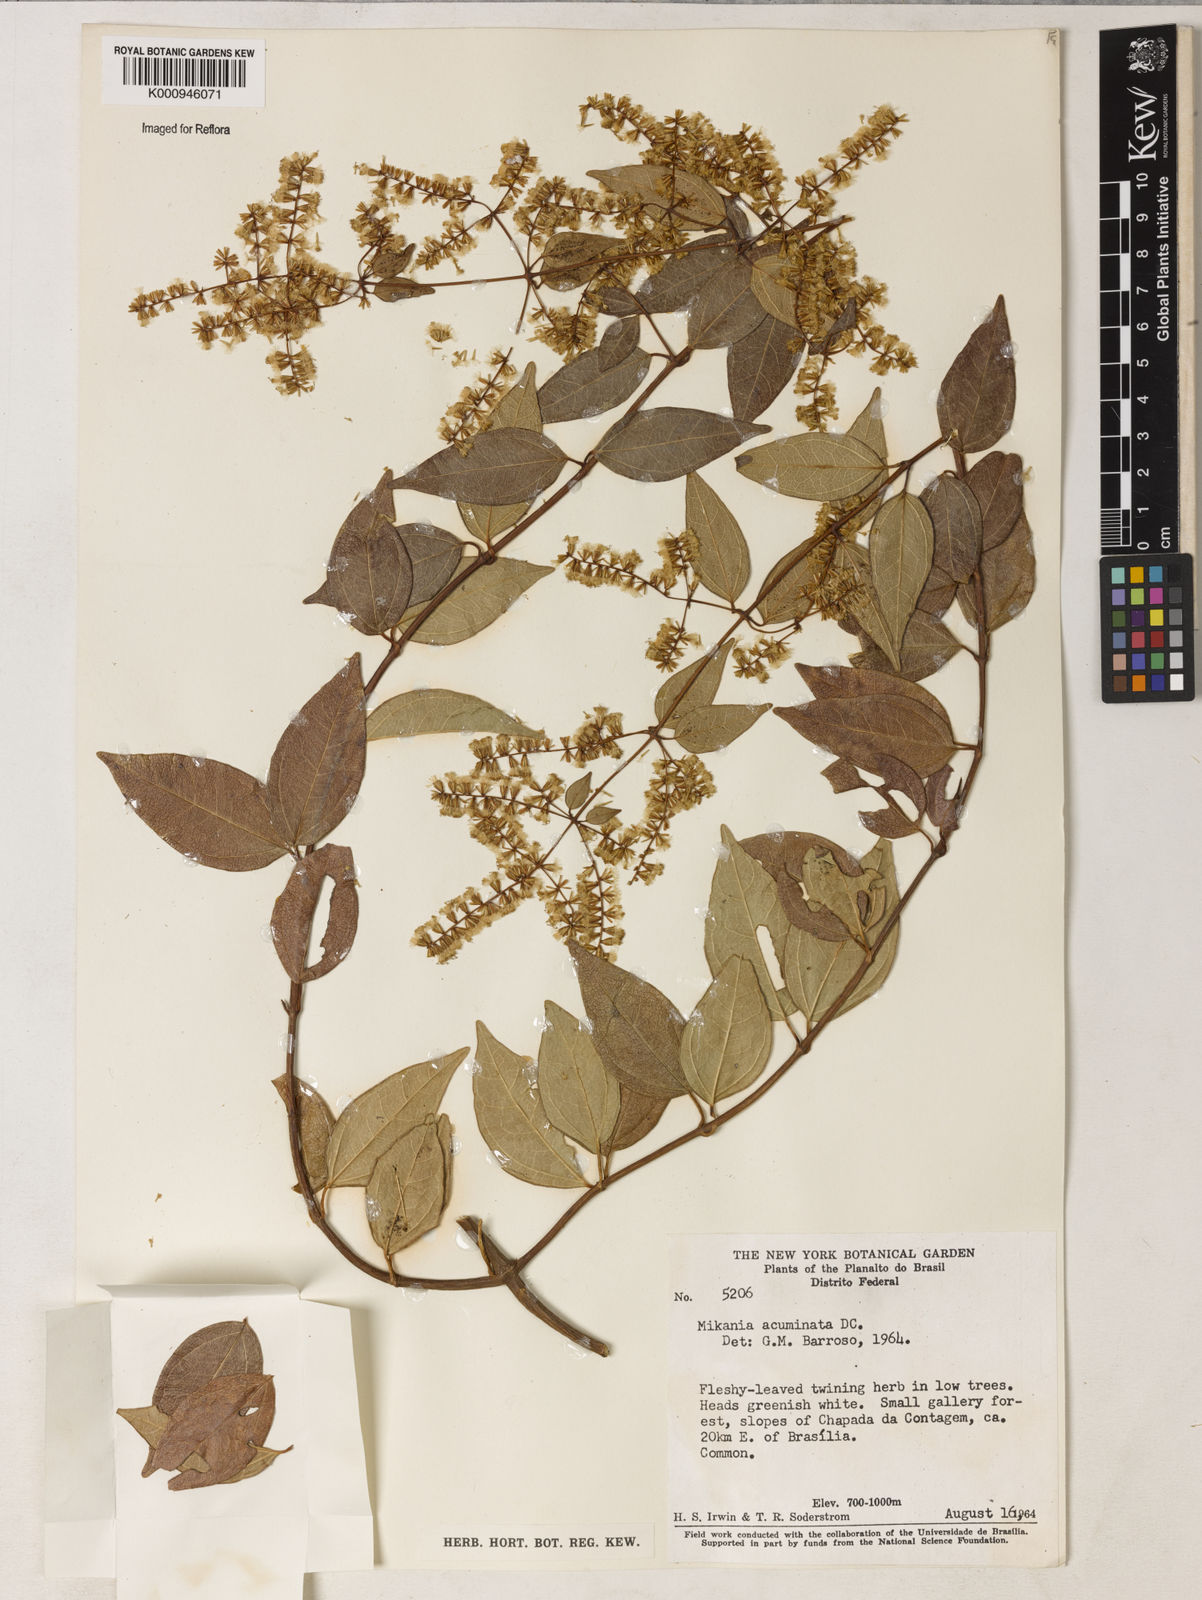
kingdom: Plantae
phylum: Tracheophyta
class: Magnoliopsida
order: Asterales
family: Asteraceae
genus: Mikania
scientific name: Mikania acuminata
